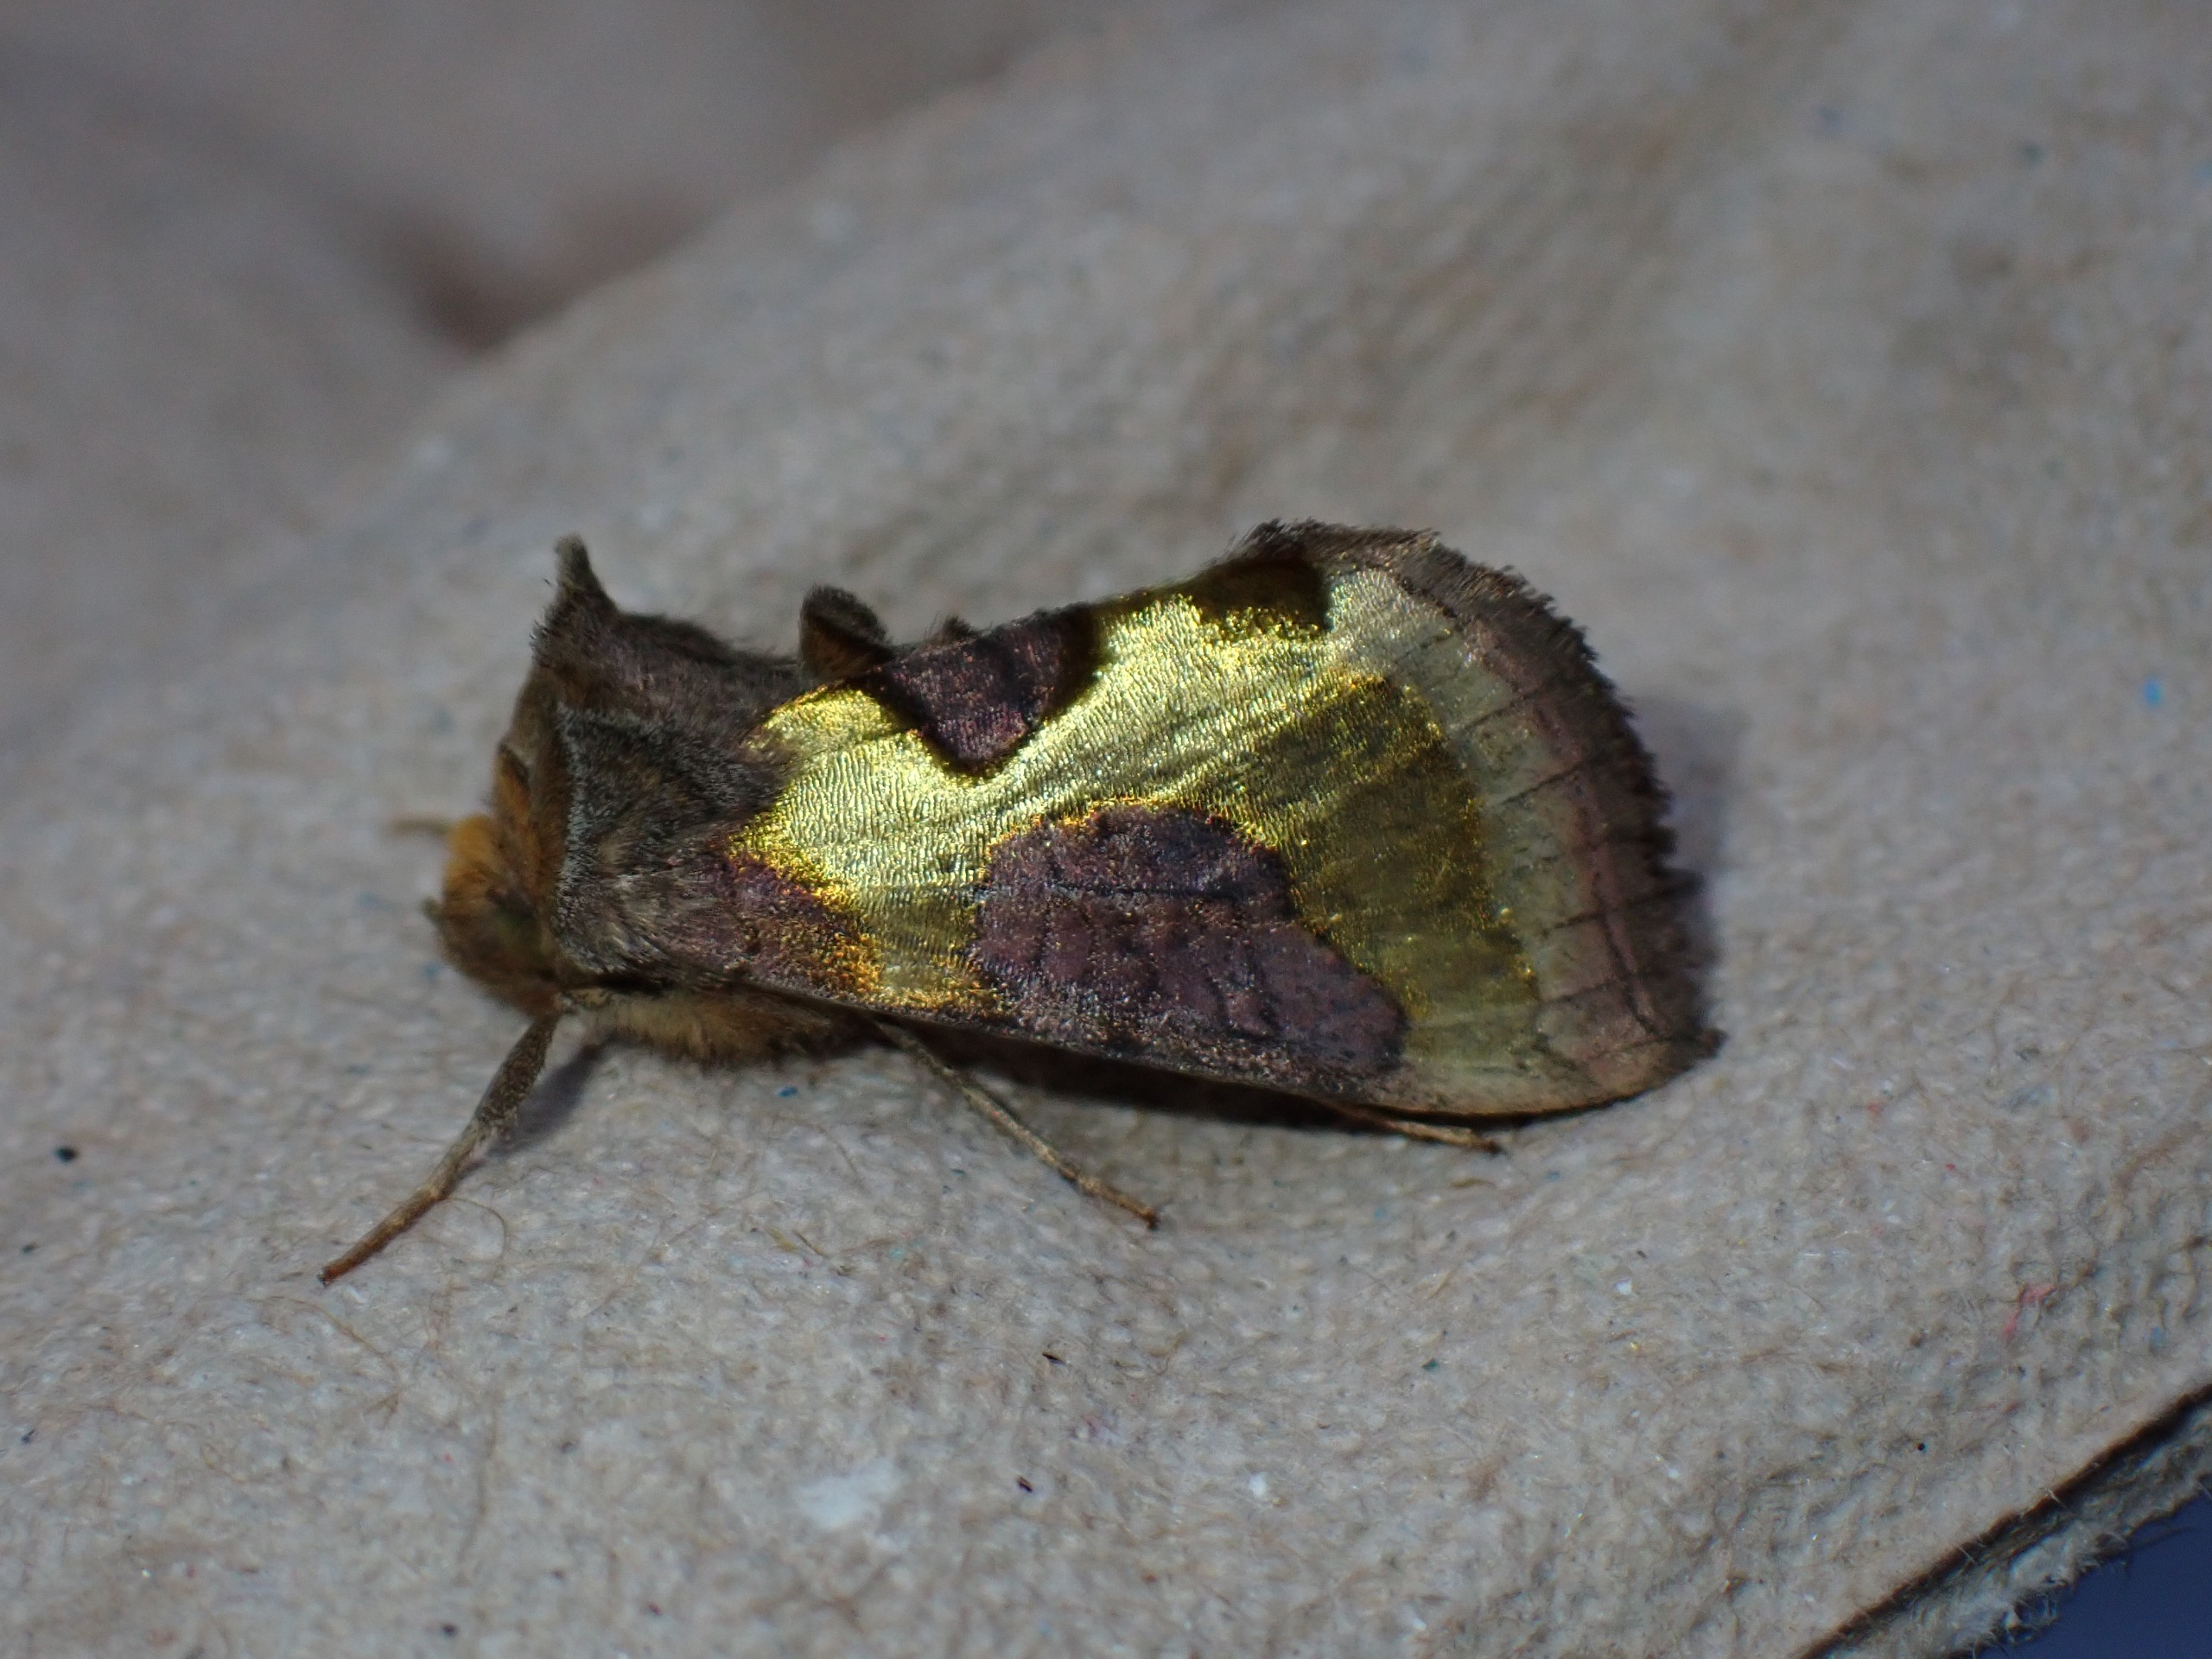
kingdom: Animalia
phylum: Arthropoda
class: Insecta
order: Lepidoptera
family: Noctuidae
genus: Diachrysia
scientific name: Diachrysia stenochrysis
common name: Udelt messingugle
